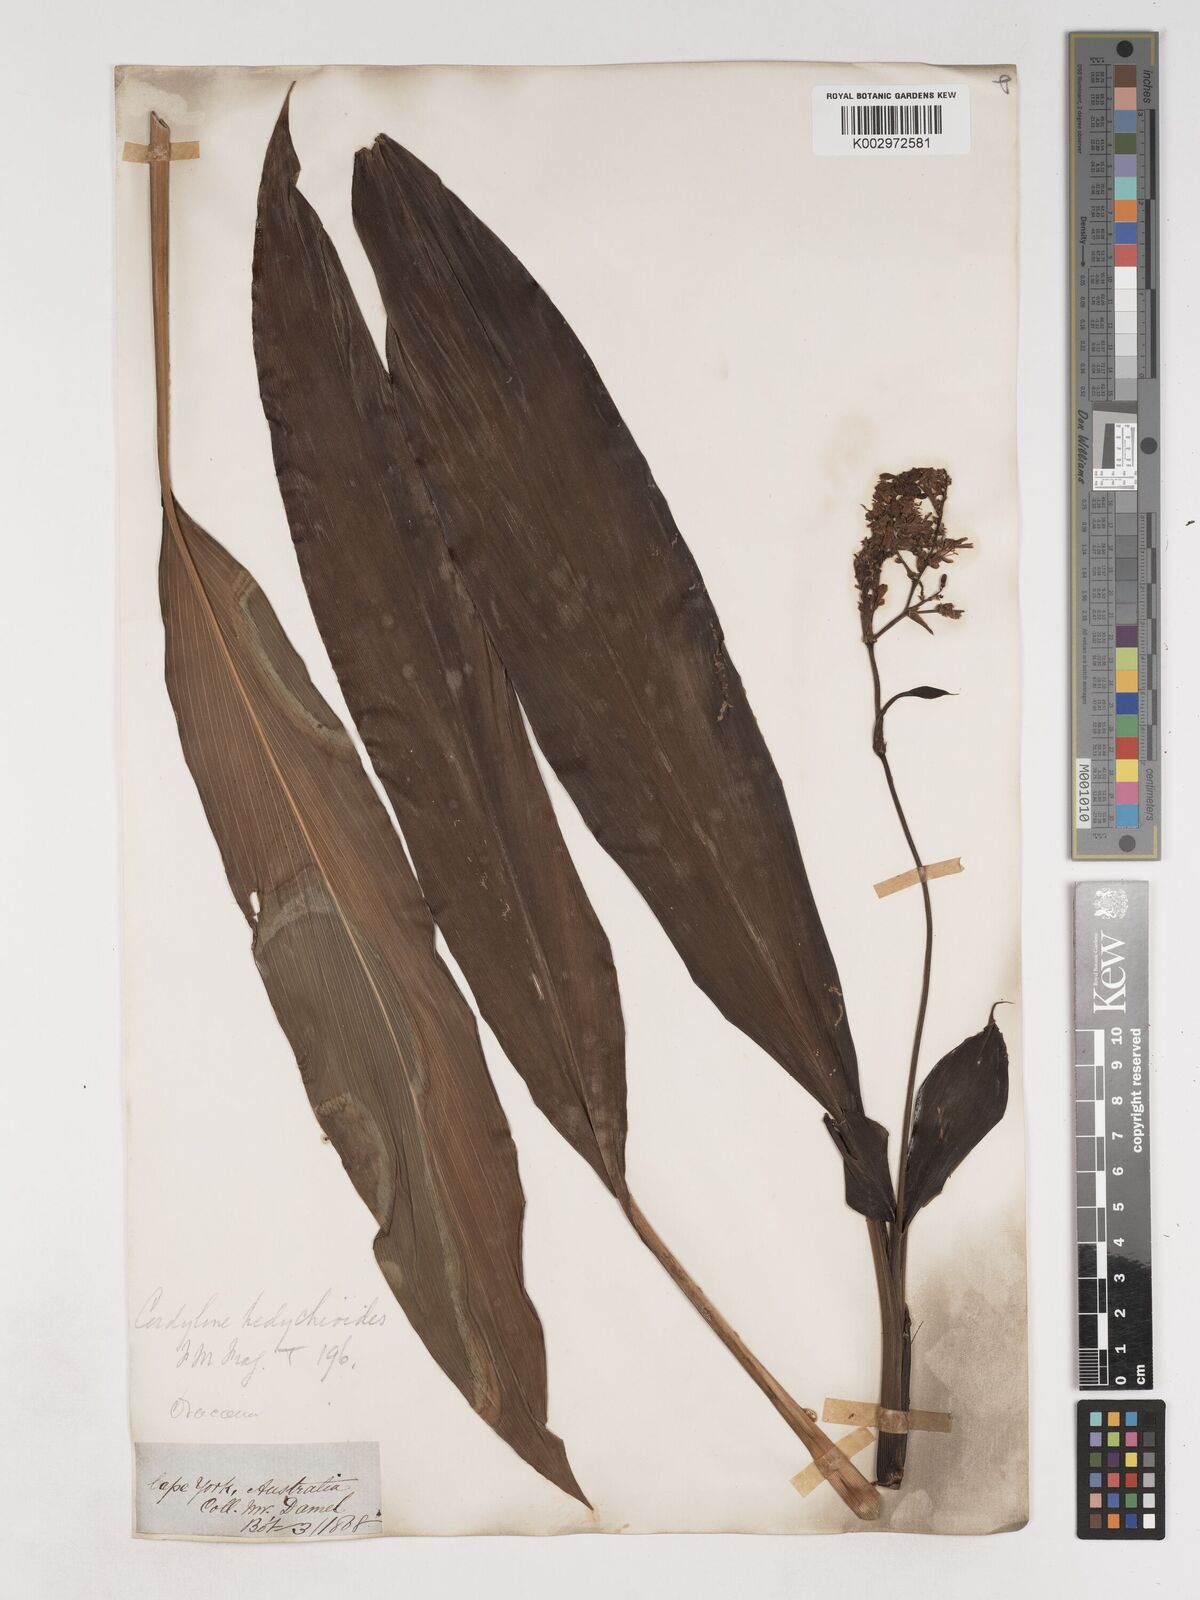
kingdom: Plantae
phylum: Tracheophyta
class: Liliopsida
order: Asparagales
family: Asparagaceae
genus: Cordyline
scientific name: Cordyline fruticosa
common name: Good-luck-plant
